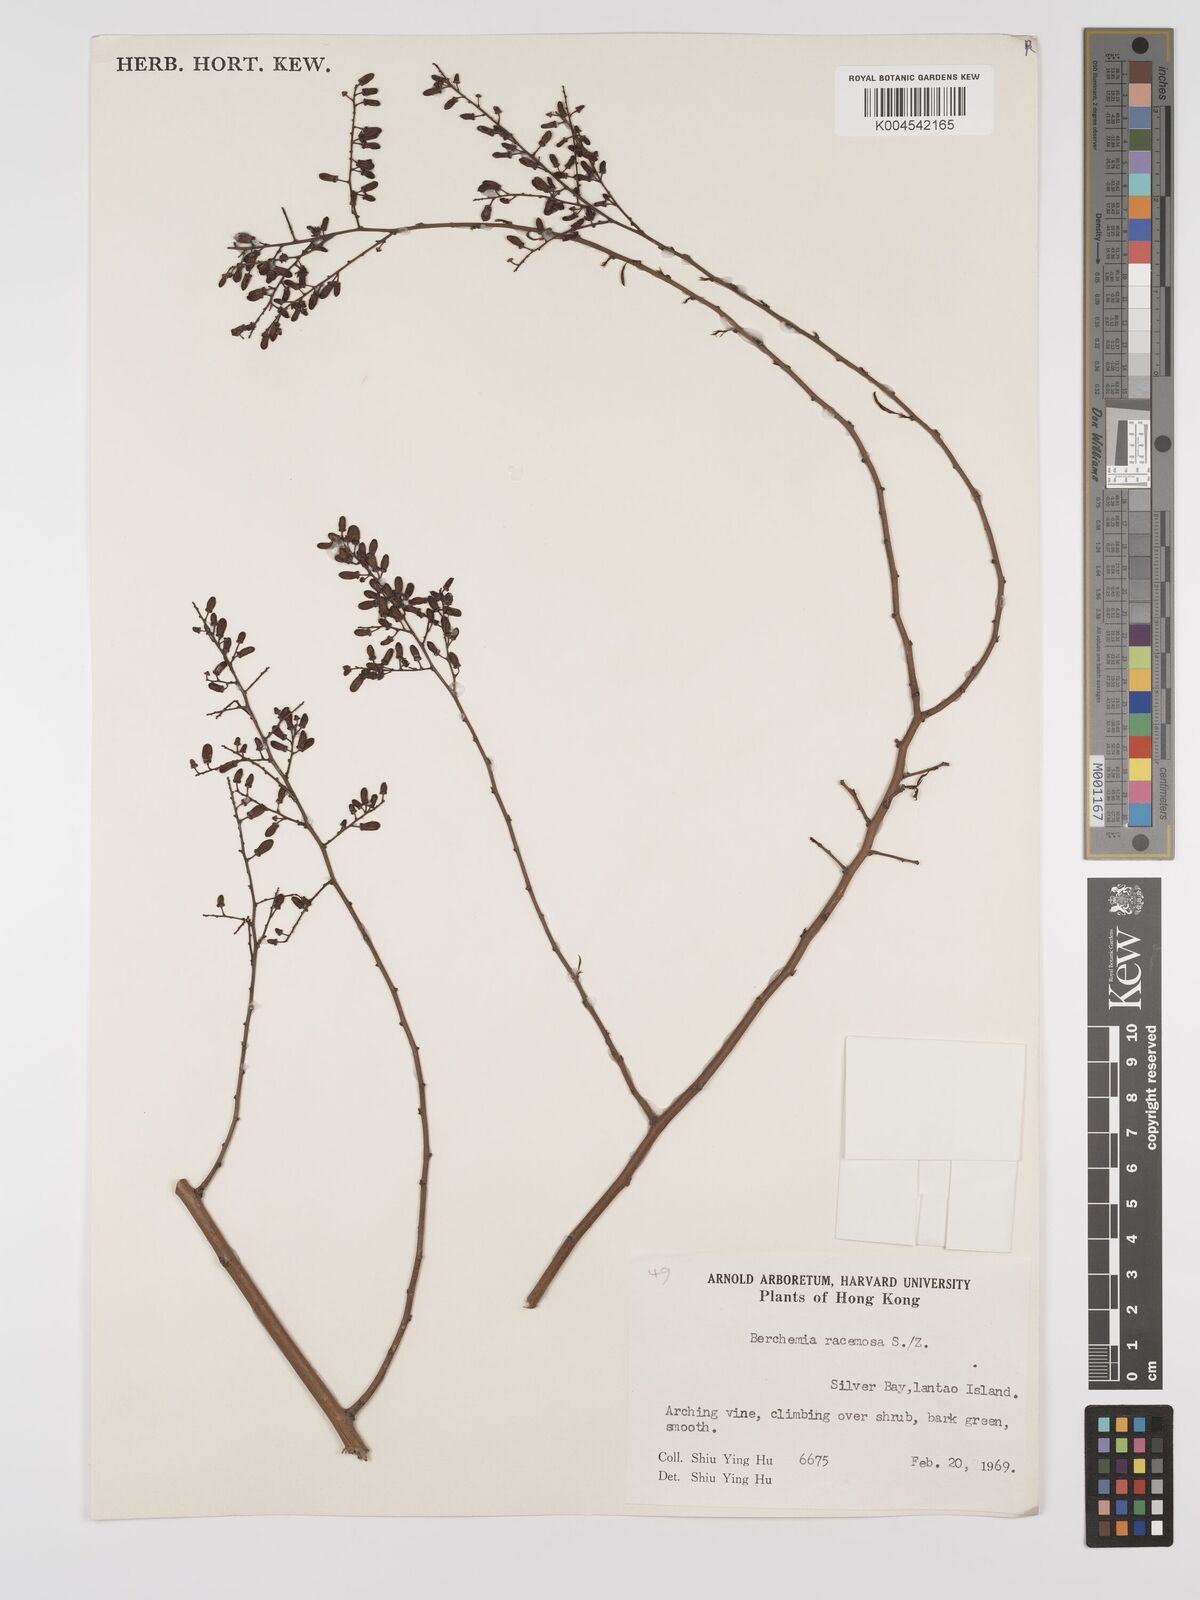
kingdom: Plantae
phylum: Tracheophyta
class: Magnoliopsida
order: Rosales
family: Rhamnaceae
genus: Berchemia
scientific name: Berchemia floribunda
